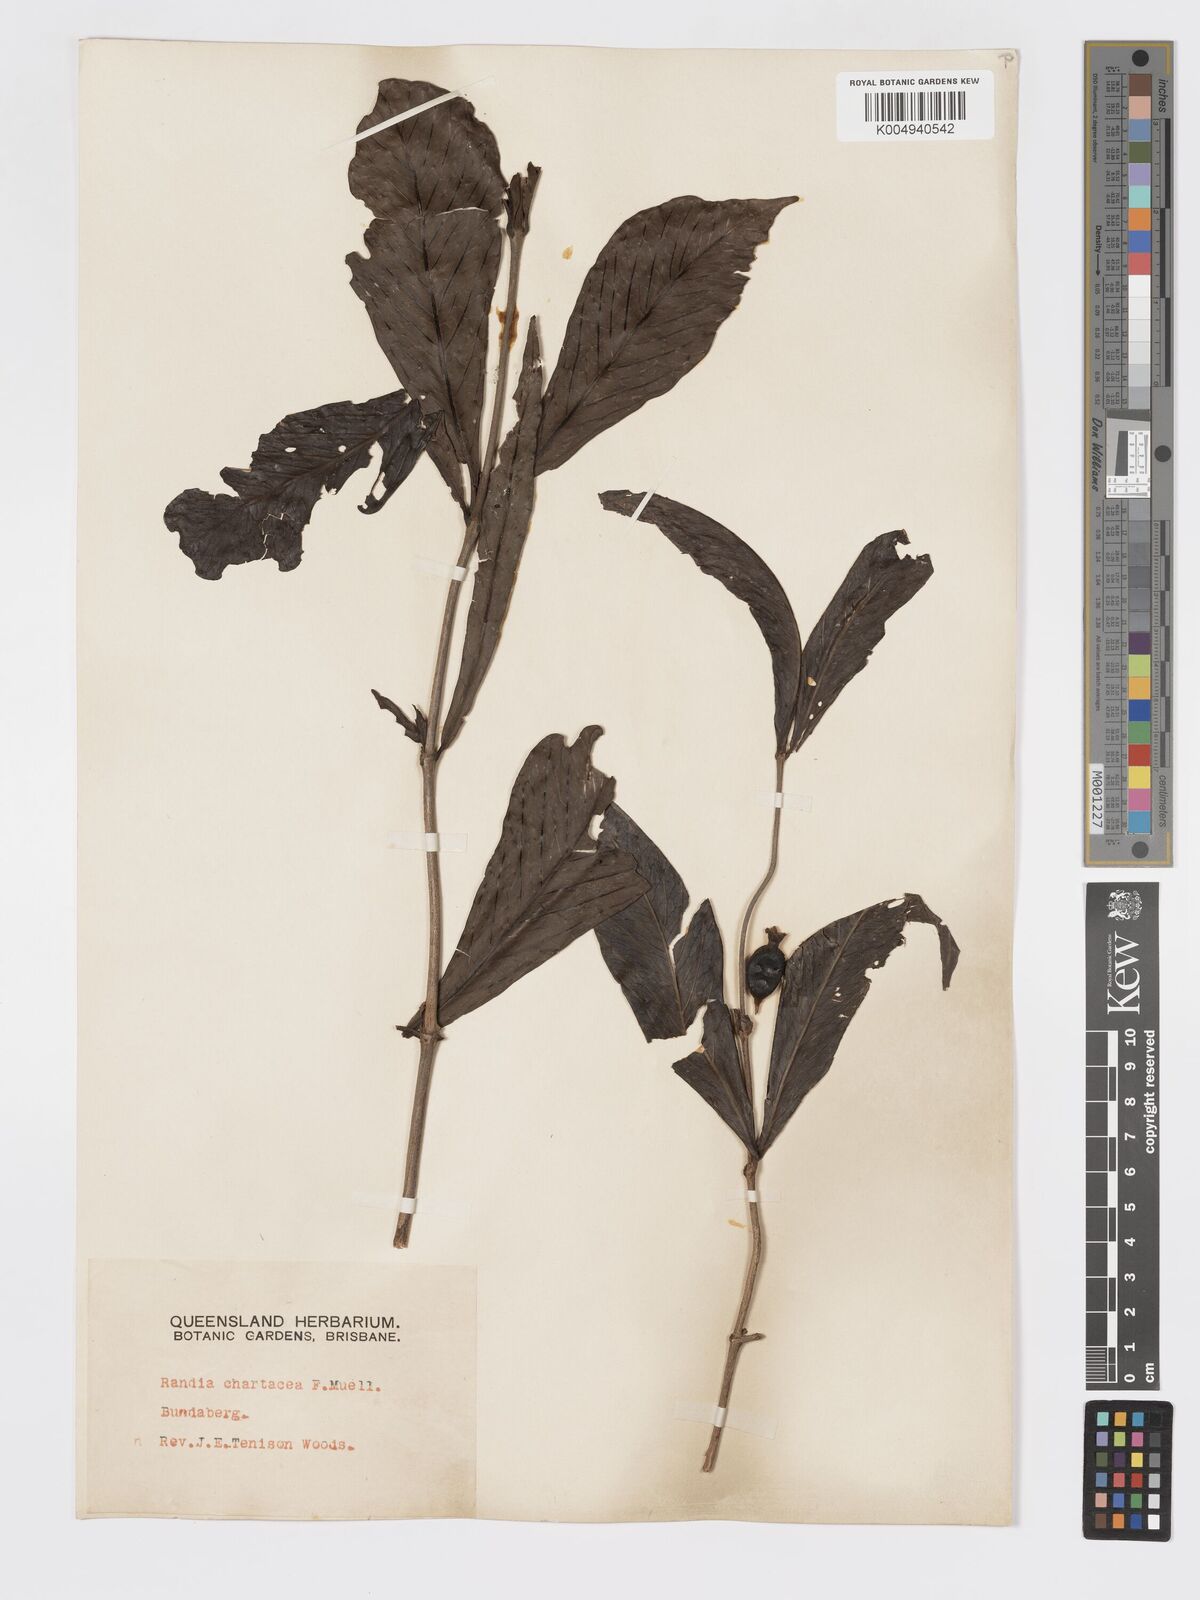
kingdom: Plantae
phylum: Tracheophyta
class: Magnoliopsida
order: Gentianales
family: Rubiaceae
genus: Atractocarpus
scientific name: Atractocarpus chartaceus
